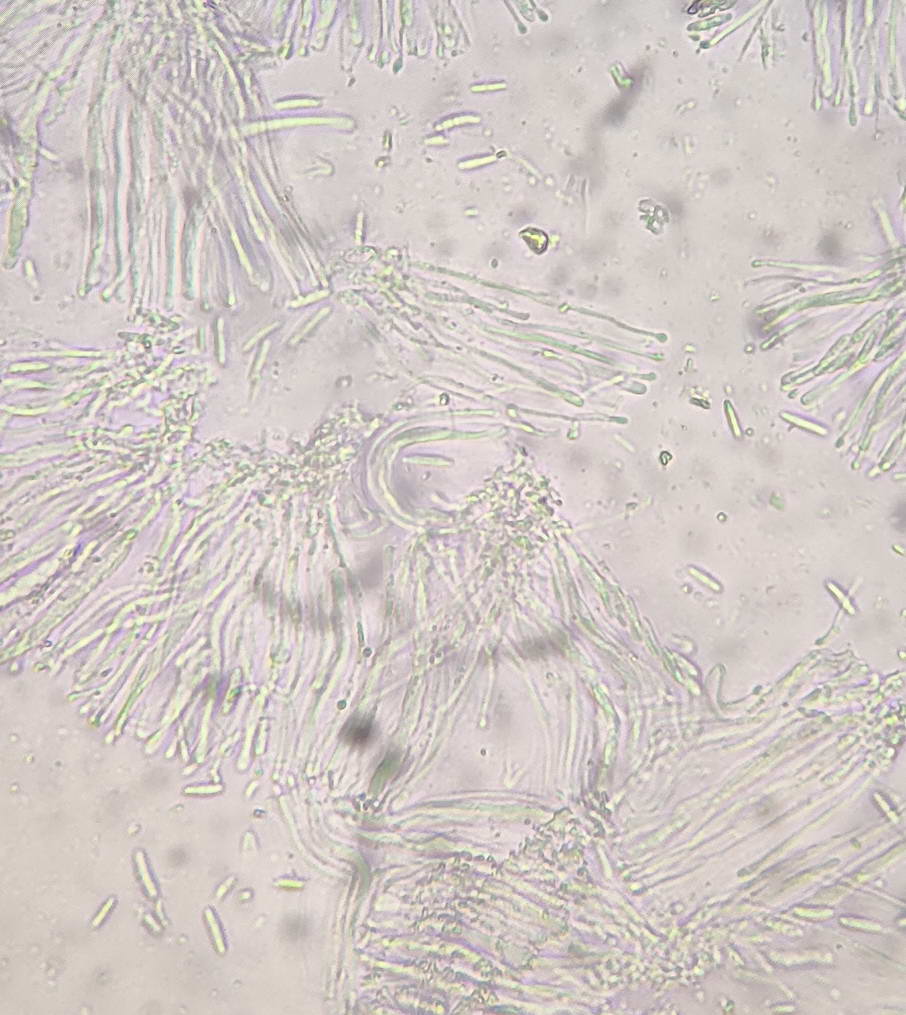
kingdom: Fungi
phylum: Ascomycota
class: Lecanoromycetes
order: Ostropales
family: Stictidaceae
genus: Cryptodiscus
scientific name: Cryptodiscus foveolaris
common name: ellipse-barkhul
